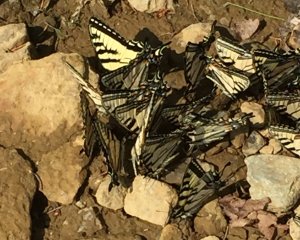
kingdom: Animalia
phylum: Arthropoda
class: Insecta
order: Lepidoptera
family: Papilionidae
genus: Pterourus
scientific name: Pterourus canadensis
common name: Canadian Tiger Swallowtail
